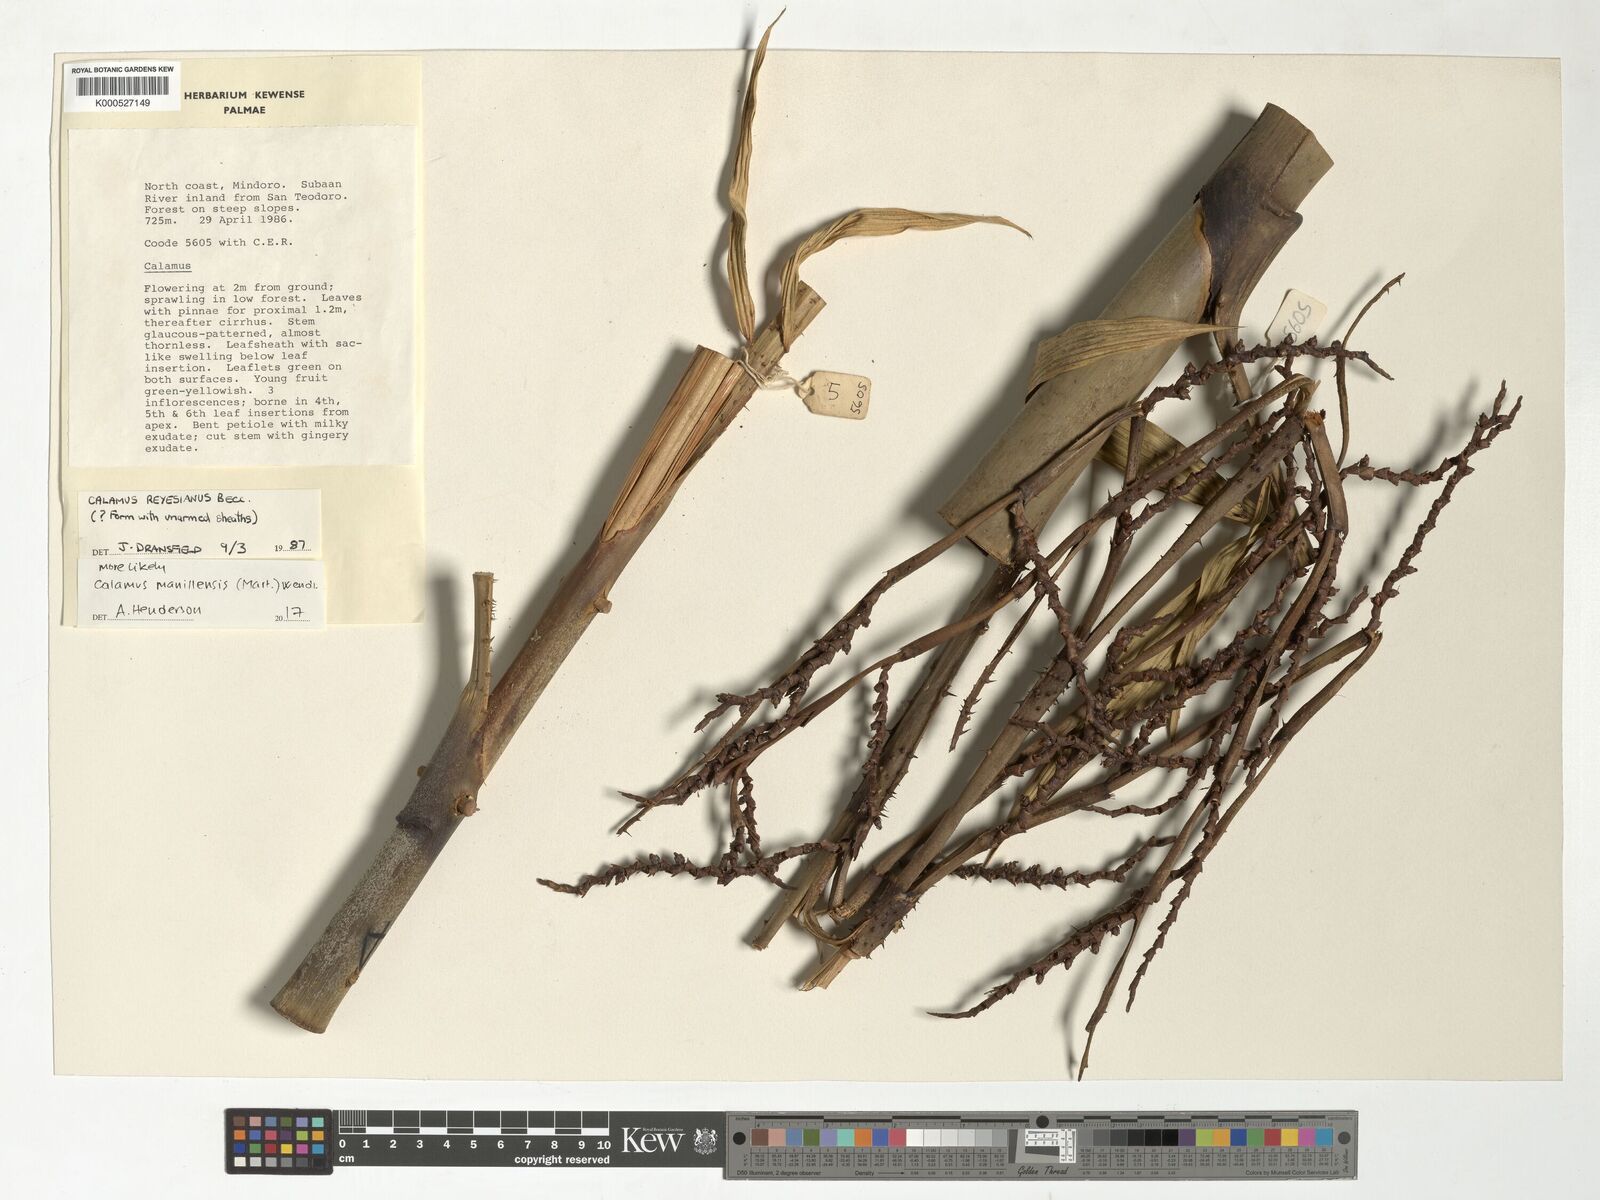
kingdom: Plantae
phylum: Tracheophyta
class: Liliopsida
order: Arecales
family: Arecaceae
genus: Calamus
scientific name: Calamus manillensis
